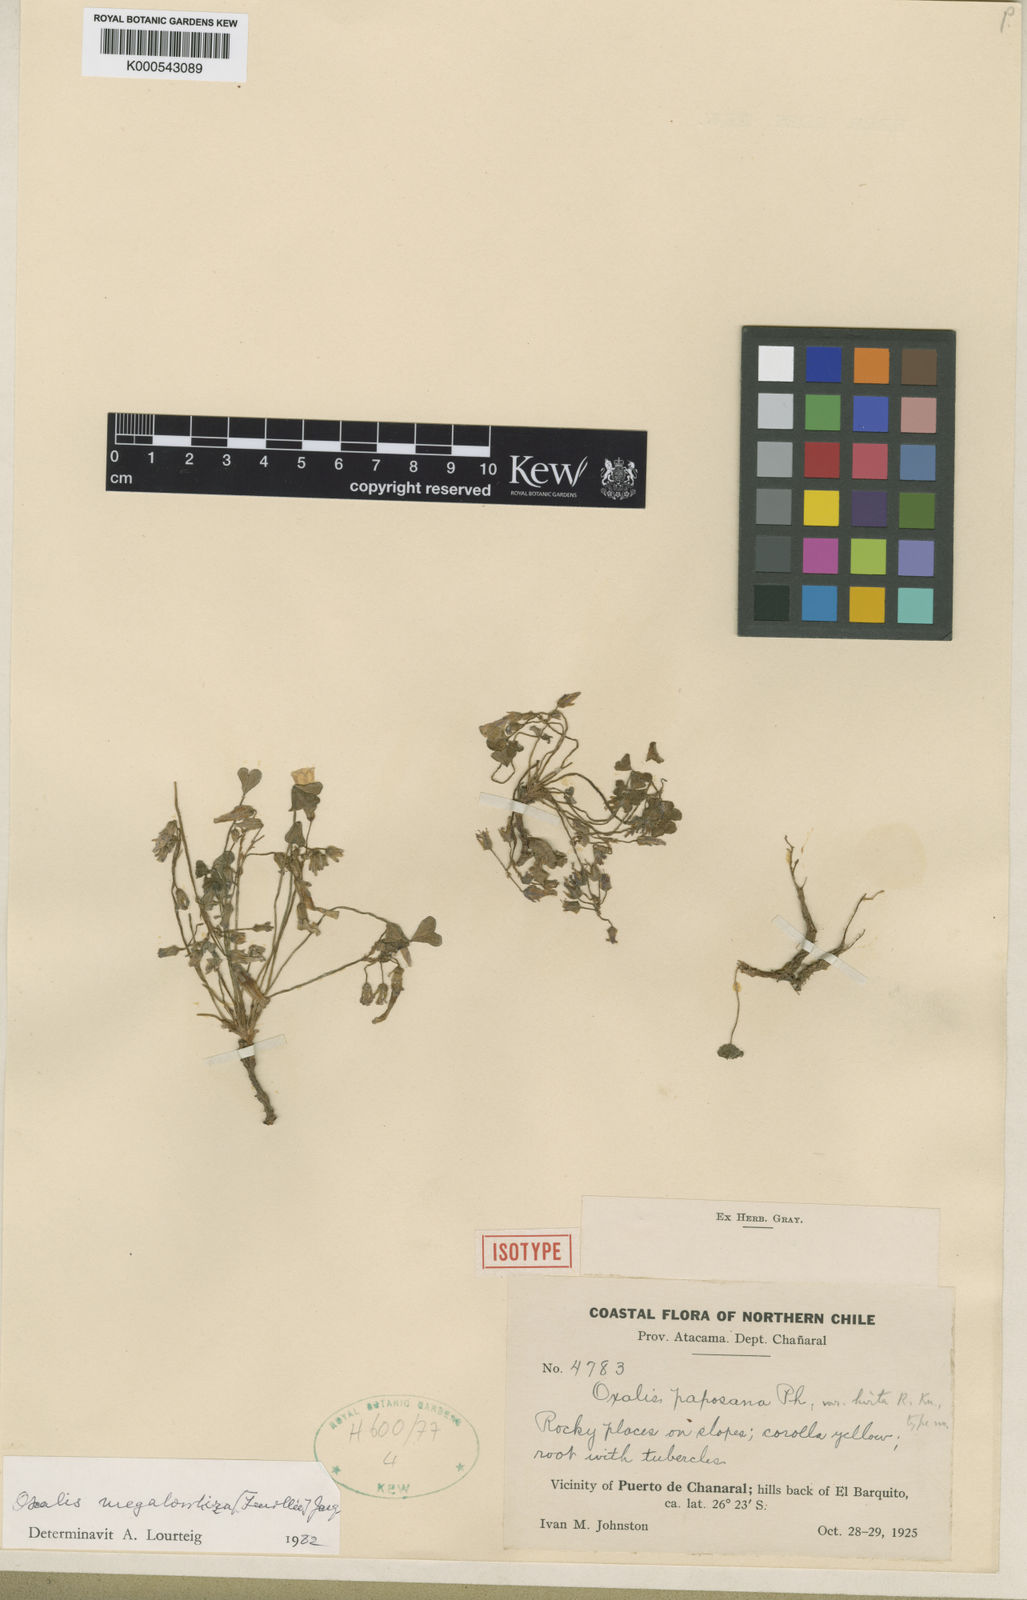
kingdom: Plantae
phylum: Tracheophyta
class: Magnoliopsida
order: Oxalidales
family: Oxalidaceae
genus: Oxalis
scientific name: Oxalis megalorrhiza
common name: Fleshy yellow-sorrel
